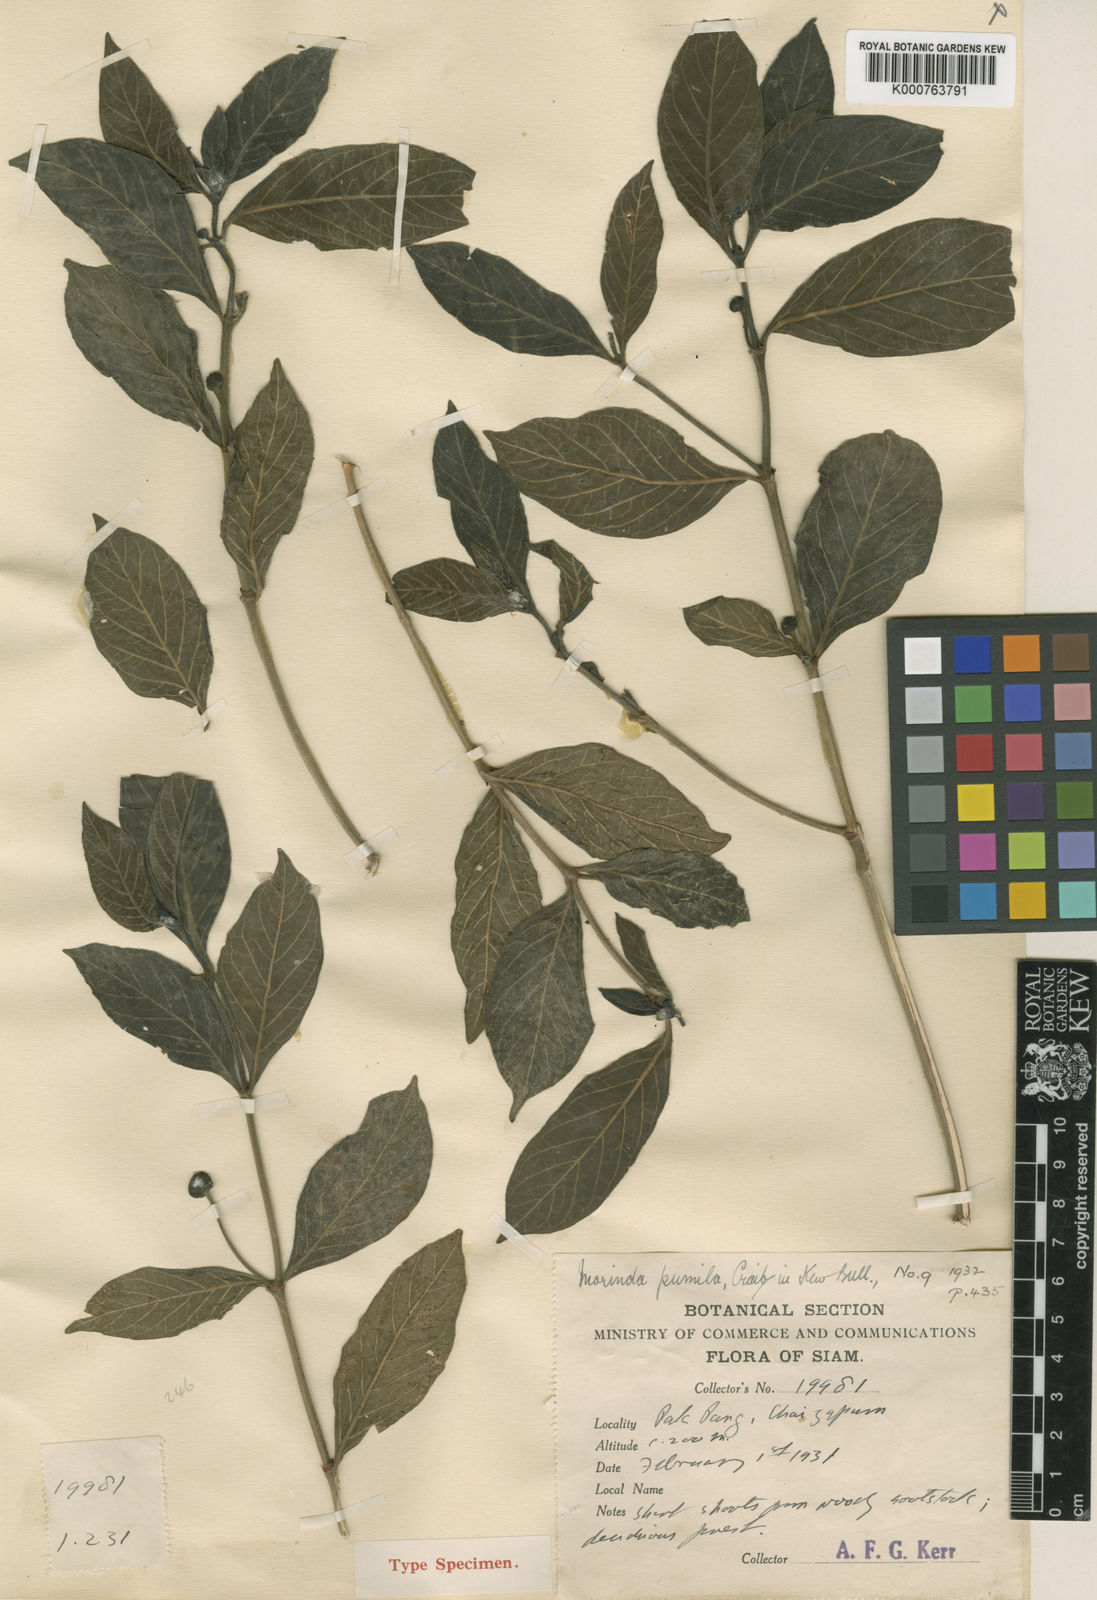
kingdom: Plantae
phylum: Tracheophyta
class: Magnoliopsida
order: Gentianales
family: Rubiaceae
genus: Morinda
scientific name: Morinda tomentosa
